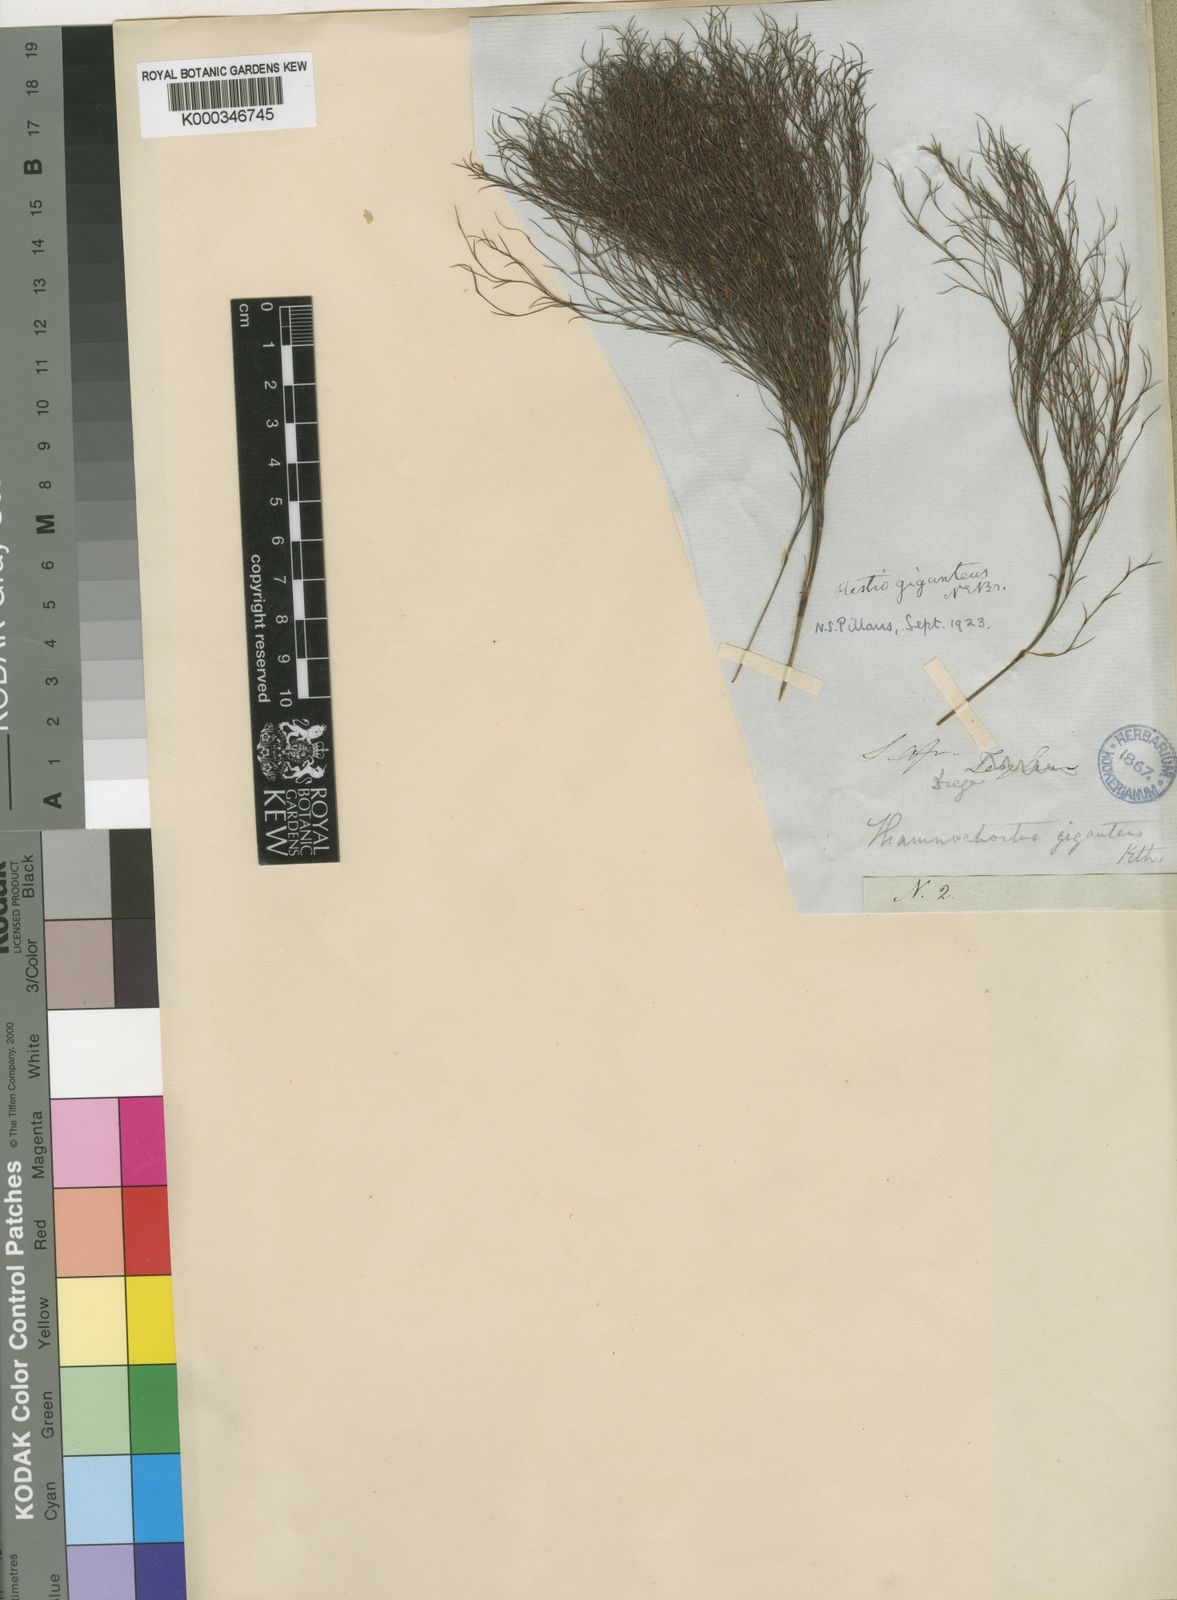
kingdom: Plantae
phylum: Tracheophyta
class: Liliopsida
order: Poales
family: Restionaceae
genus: Rhodocoma
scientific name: Rhodocoma gigantea
